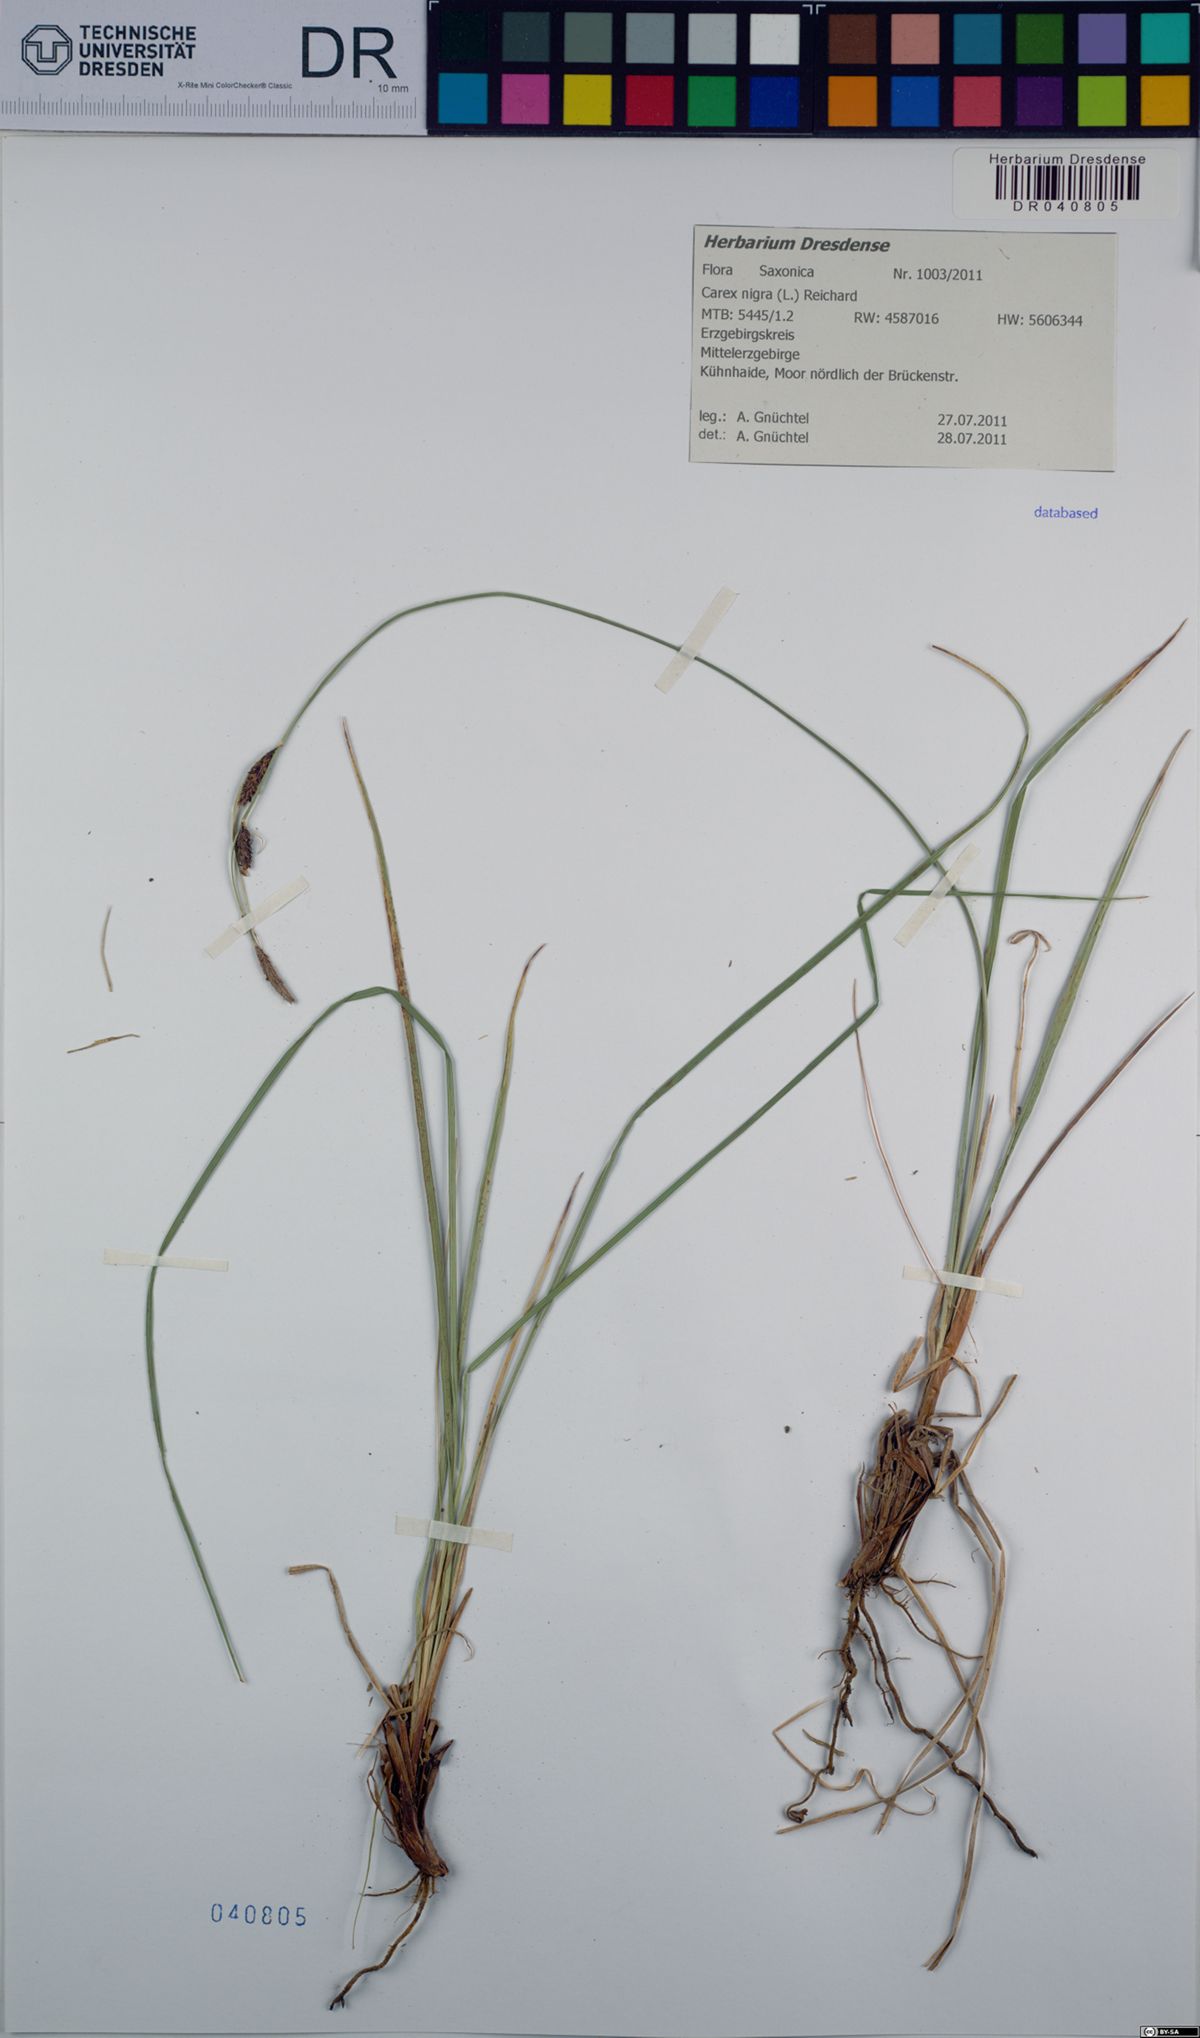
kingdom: Plantae
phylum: Tracheophyta
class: Liliopsida
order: Poales
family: Cyperaceae
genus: Carex
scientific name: Carex nigra
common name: Common sedge
